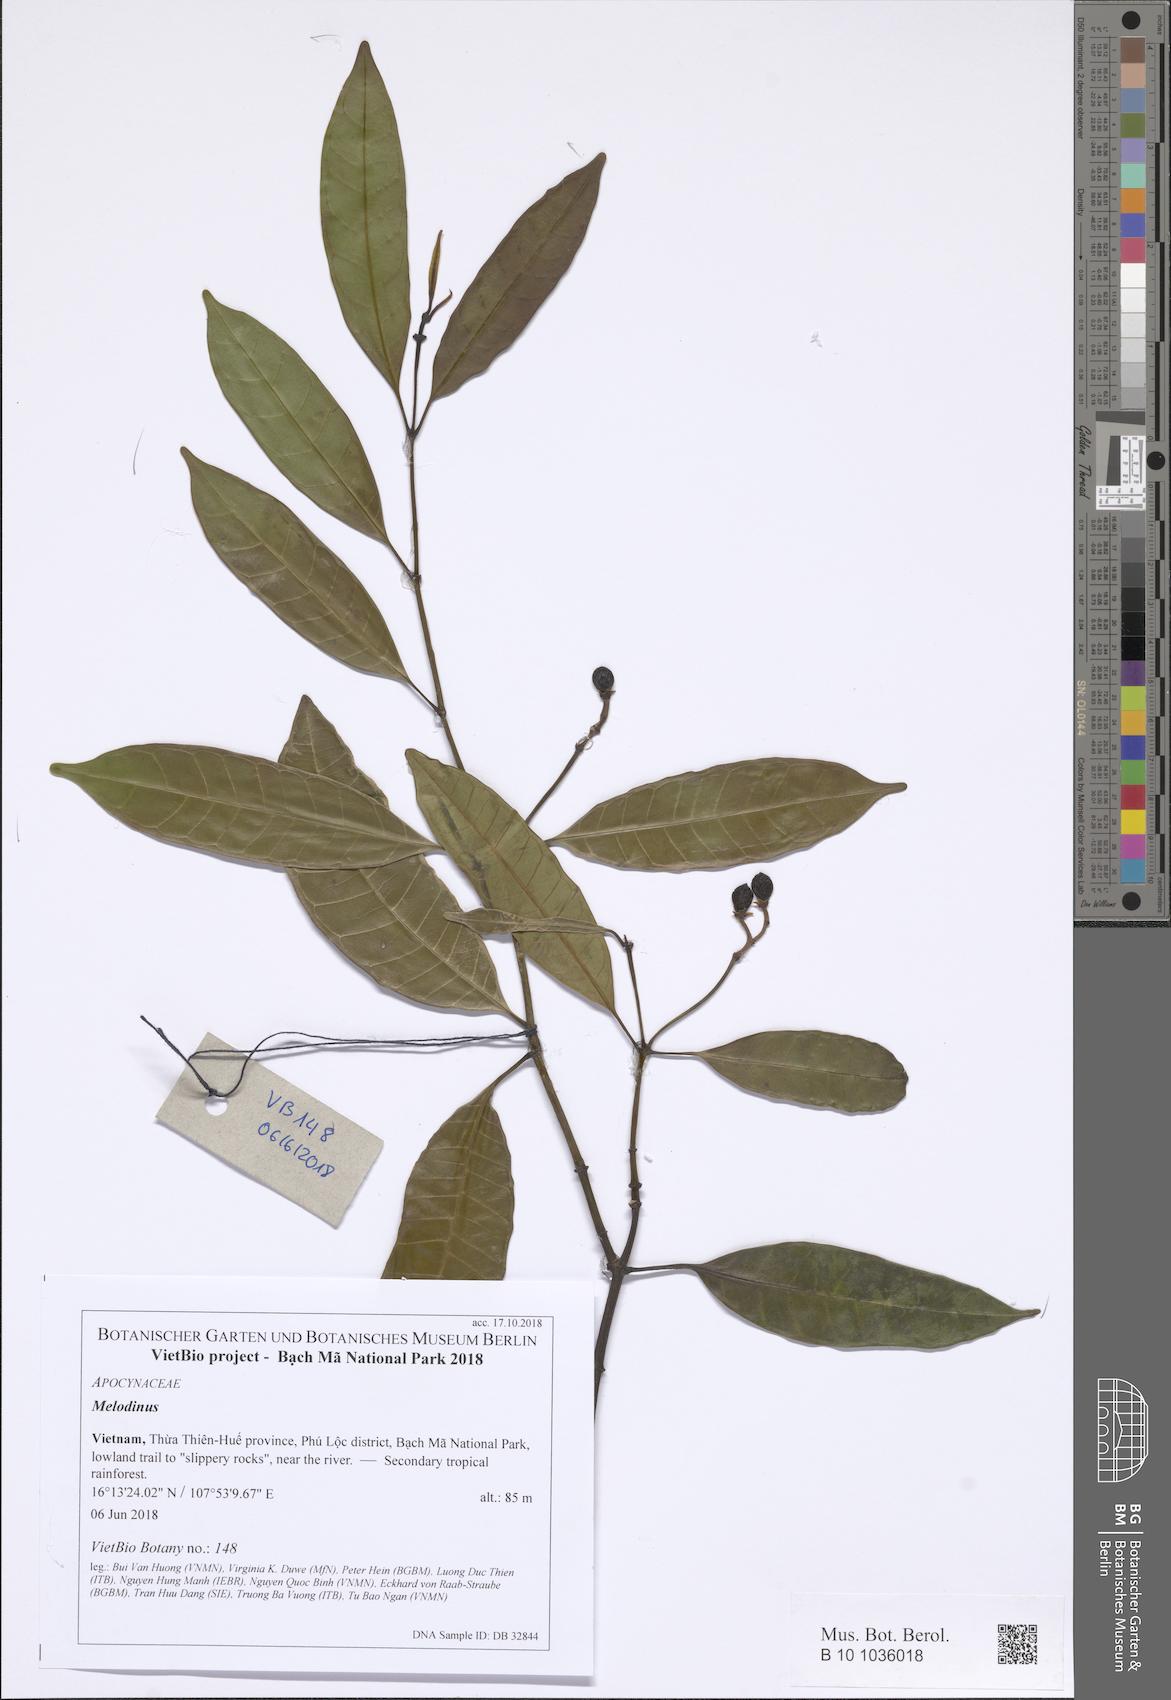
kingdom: Plantae
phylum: Tracheophyta
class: Magnoliopsida
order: Gentianales
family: Apocynaceae
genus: Melodinus
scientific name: Melodinus cambodiensis
